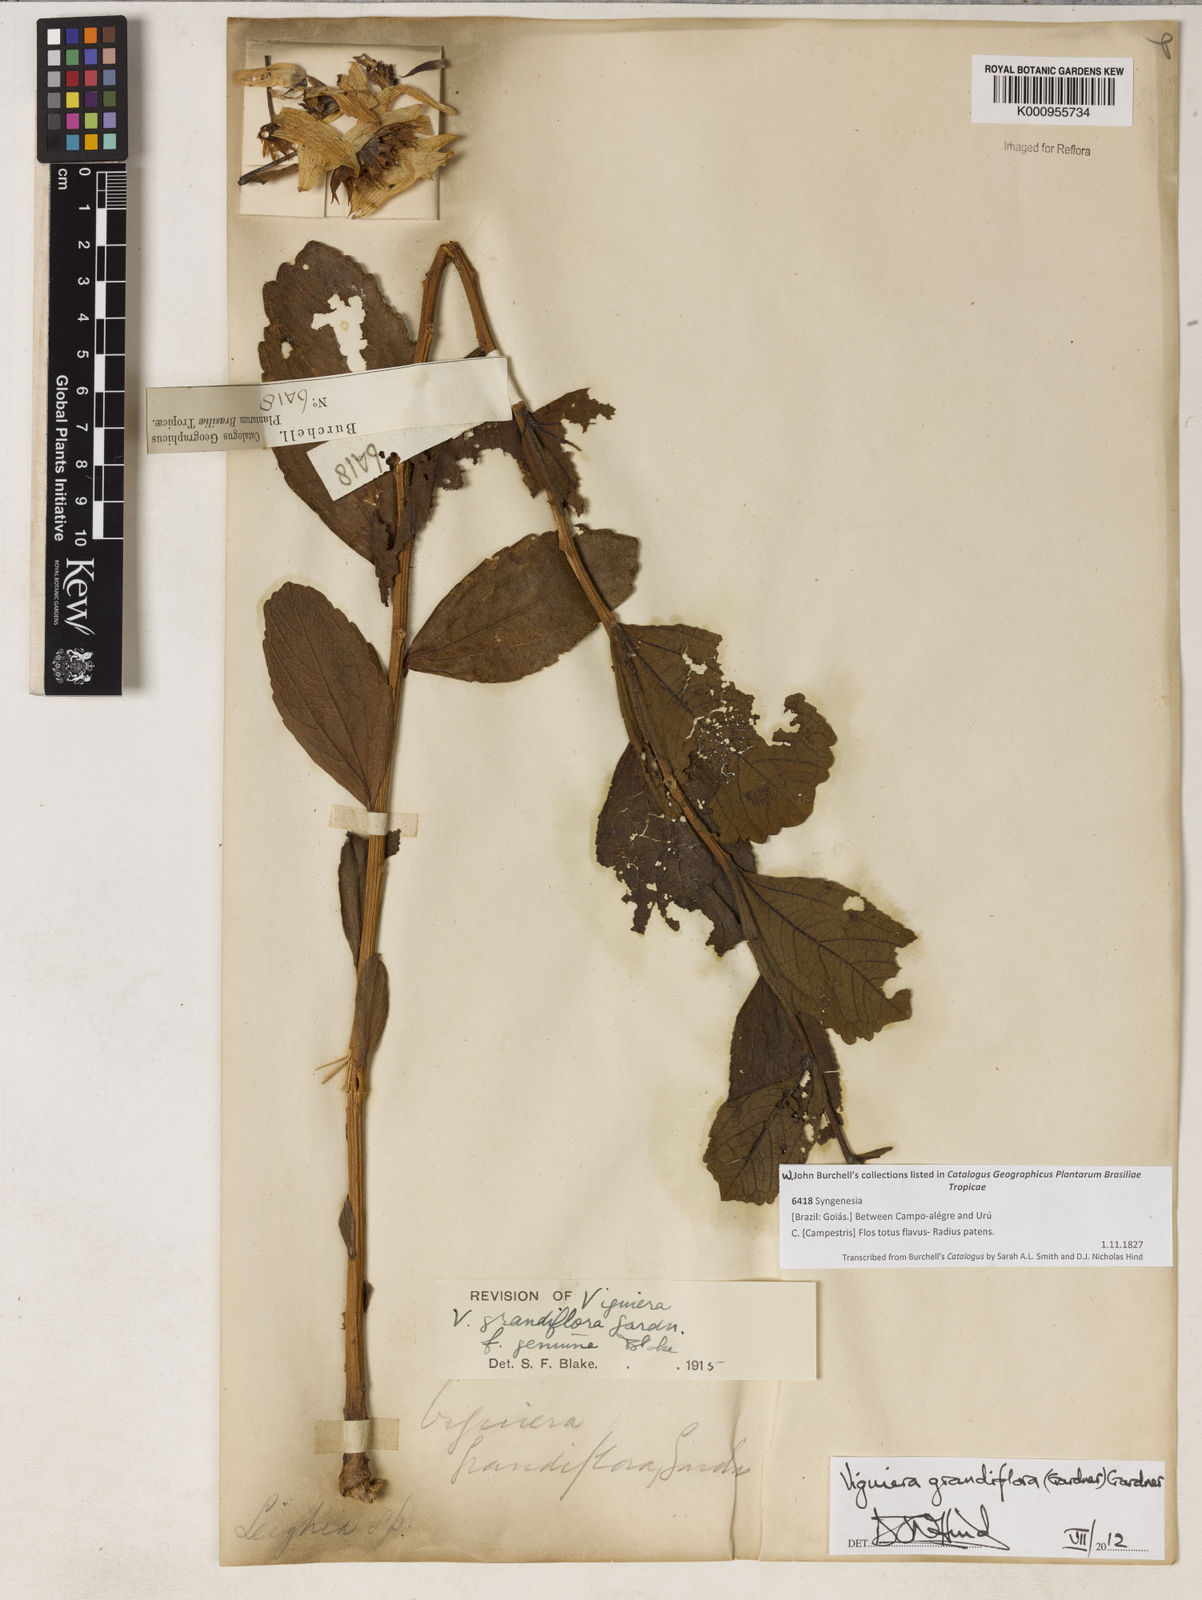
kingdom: Plantae
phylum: Tracheophyta
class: Magnoliopsida
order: Asterales
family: Asteraceae
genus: Aldama
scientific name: Aldama grandiflora
